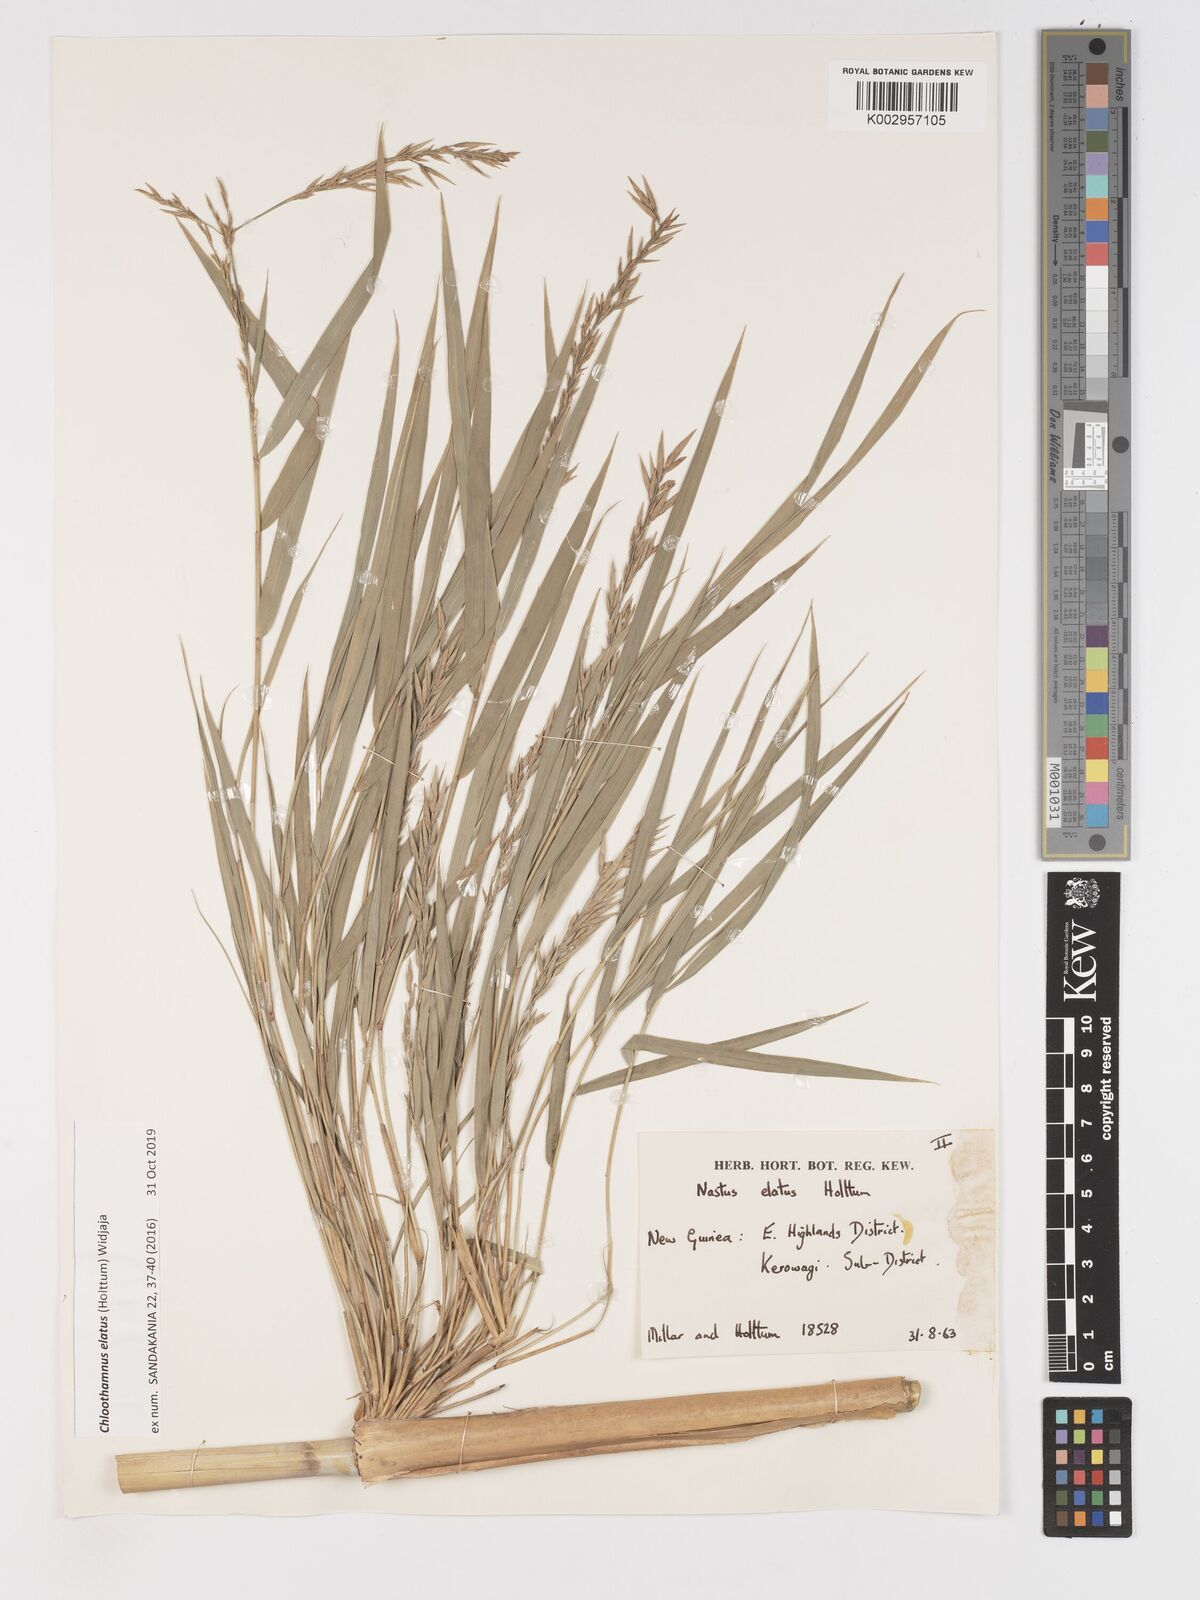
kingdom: Plantae
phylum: Tracheophyta
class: Liliopsida
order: Poales
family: Poaceae
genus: Chloothamnus
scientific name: Chloothamnus
